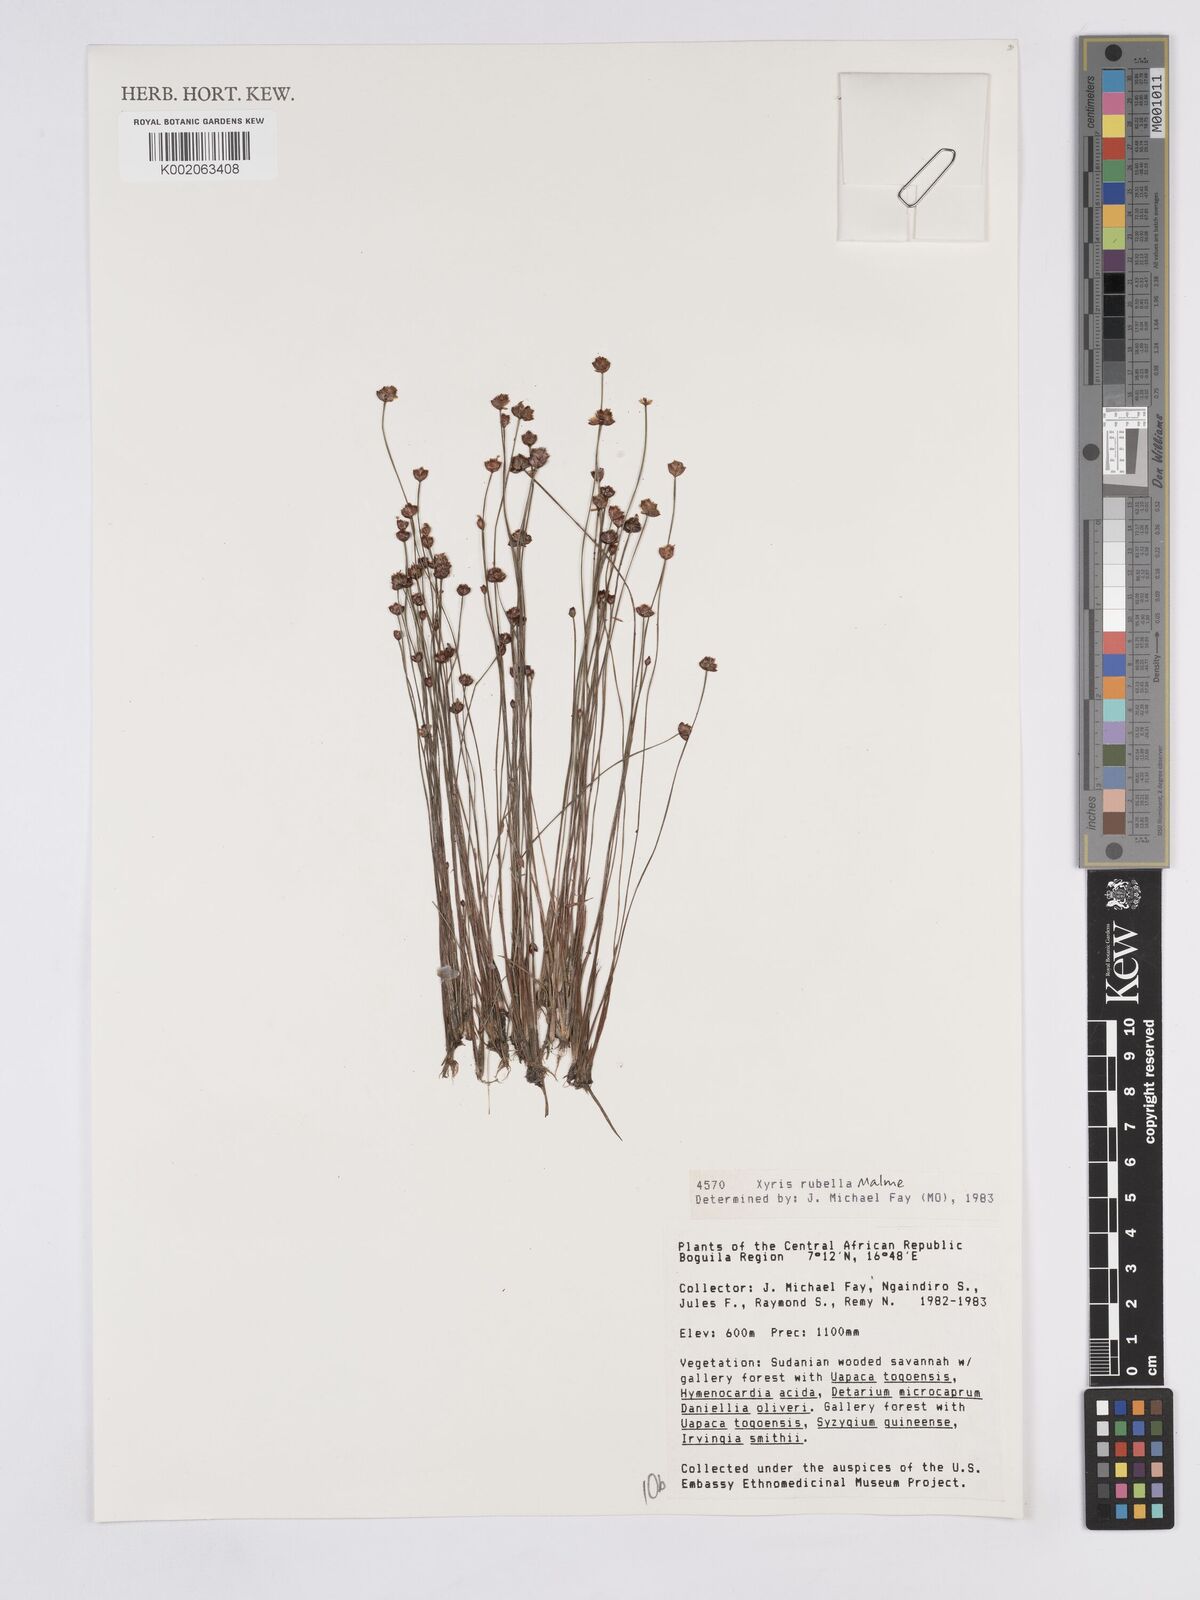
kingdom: Plantae
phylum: Tracheophyta
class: Liliopsida
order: Poales
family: Xyridaceae
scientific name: Xyridaceae
